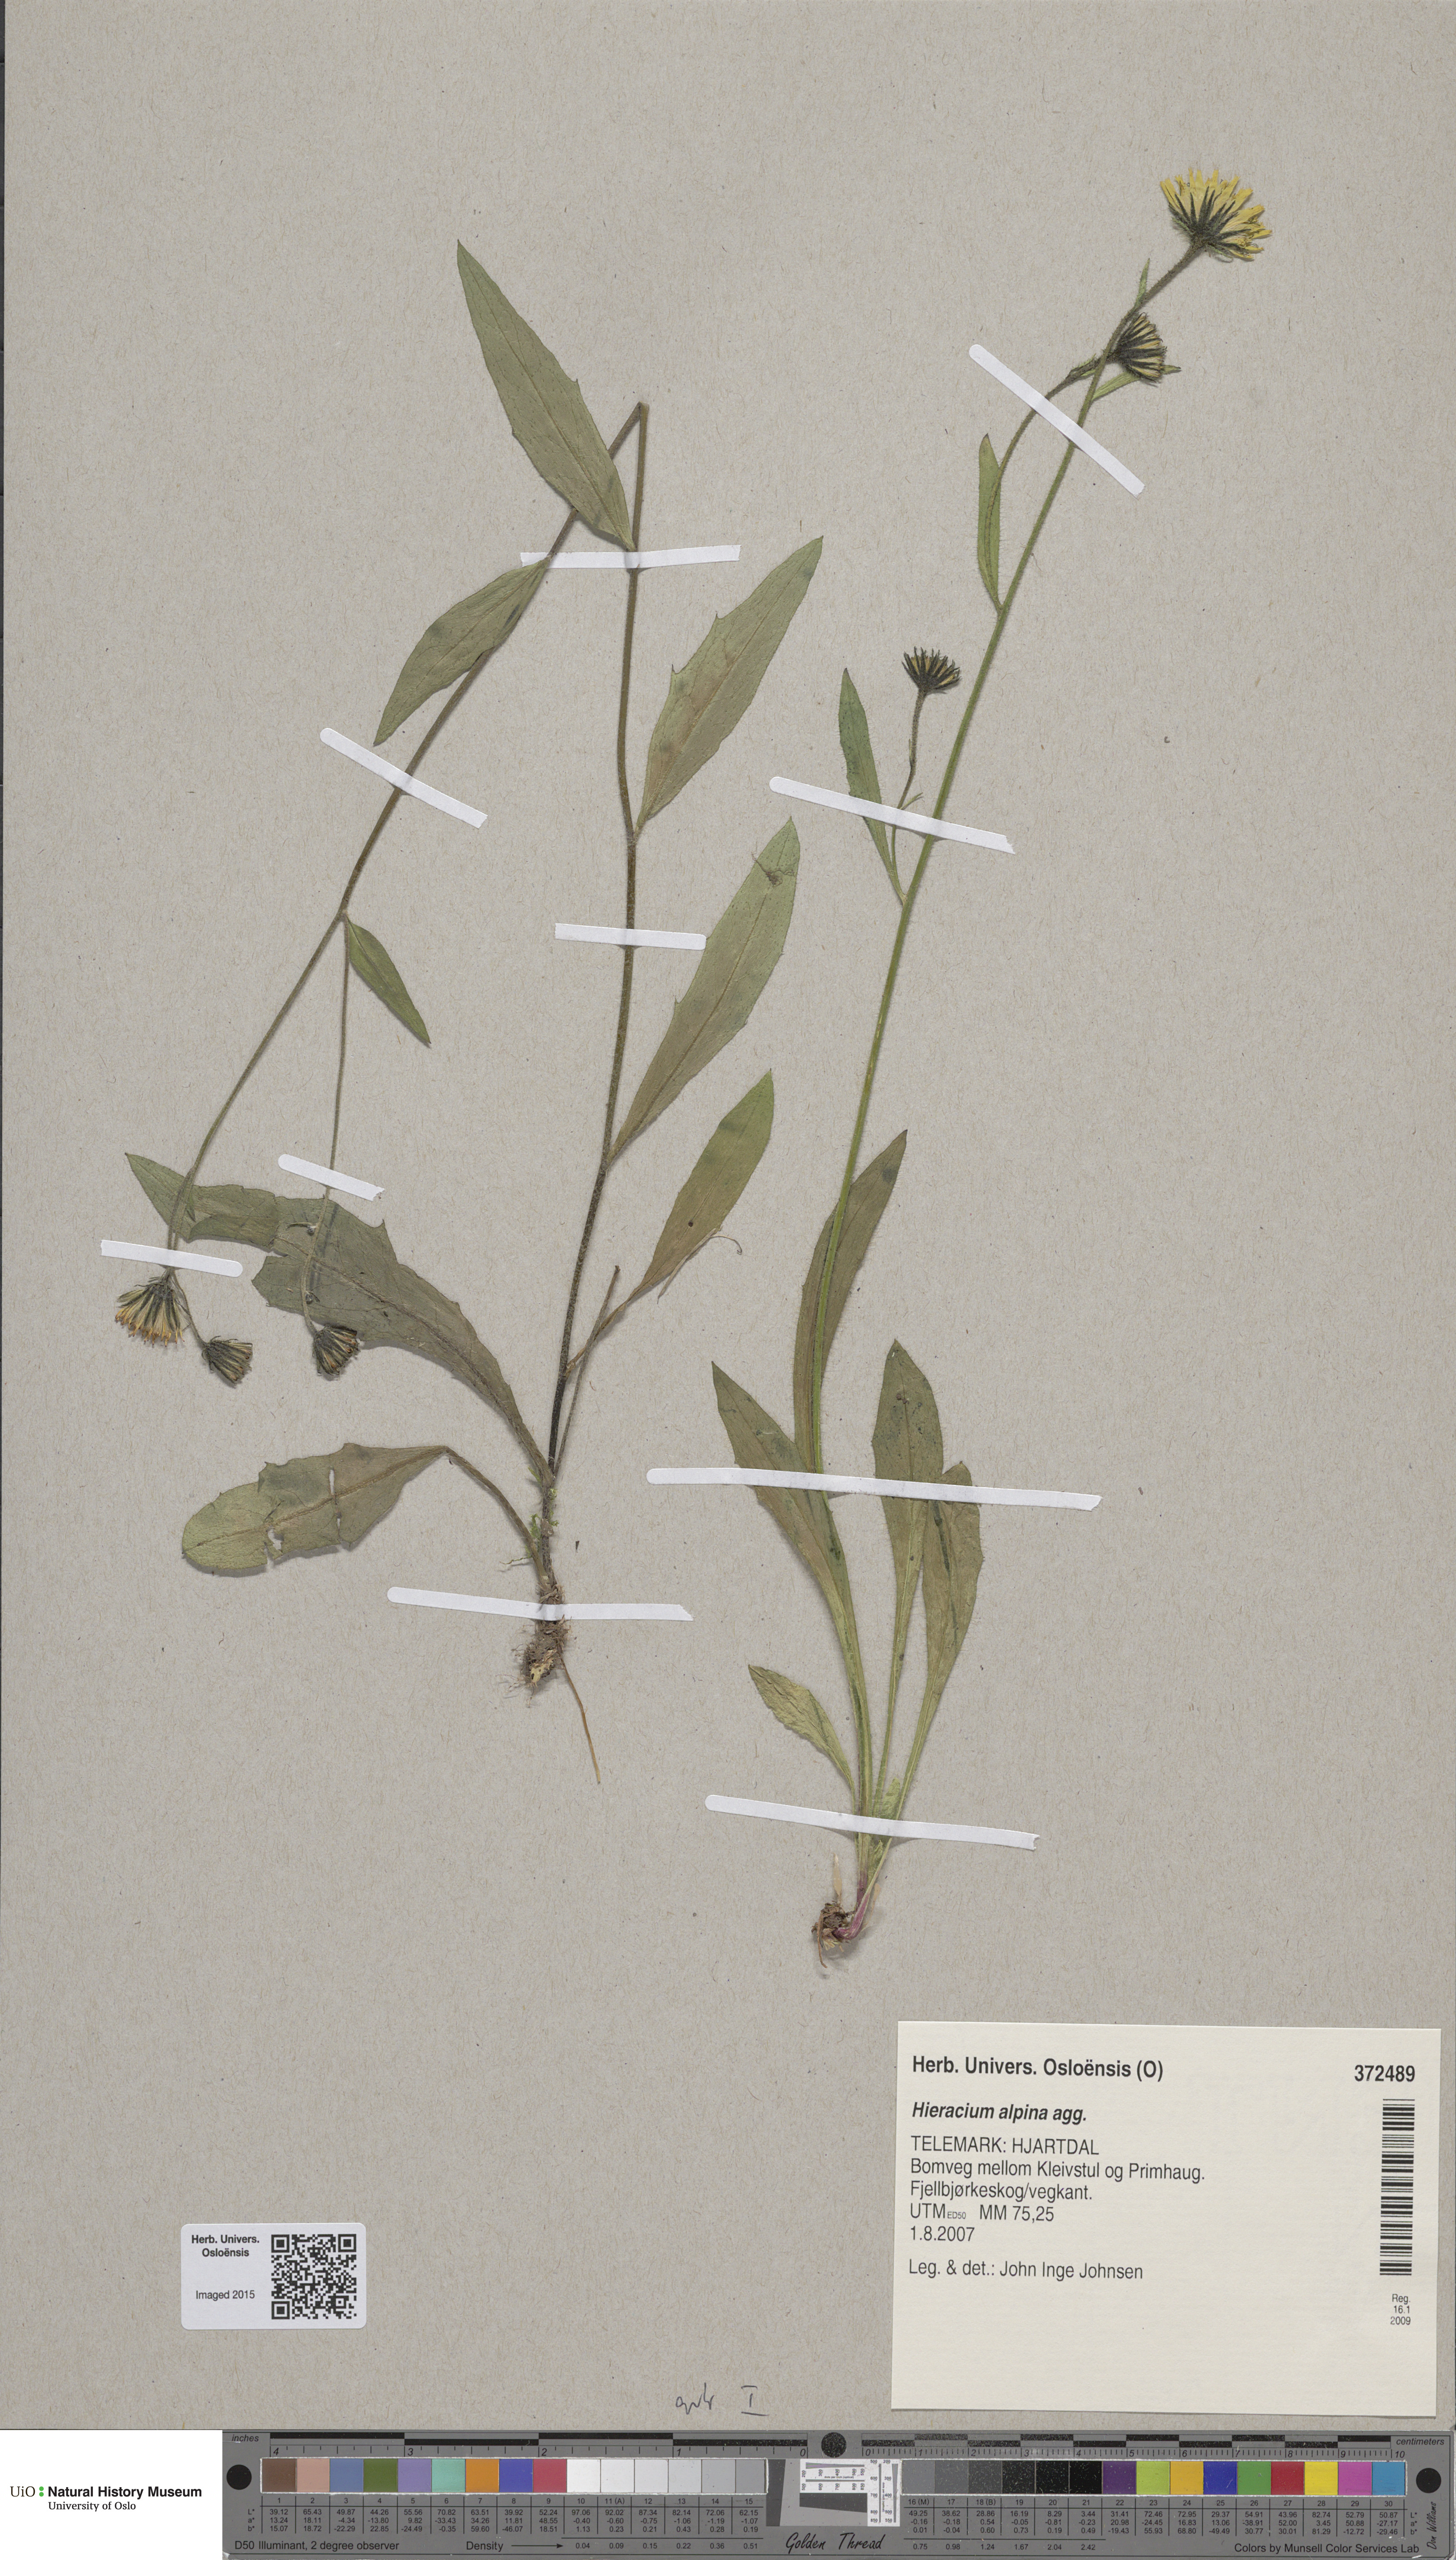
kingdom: Plantae
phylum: Tracheophyta
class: Magnoliopsida
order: Asterales
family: Asteraceae
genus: Hieracium
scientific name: Hieracium alpinum
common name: Alpine hawkweed
